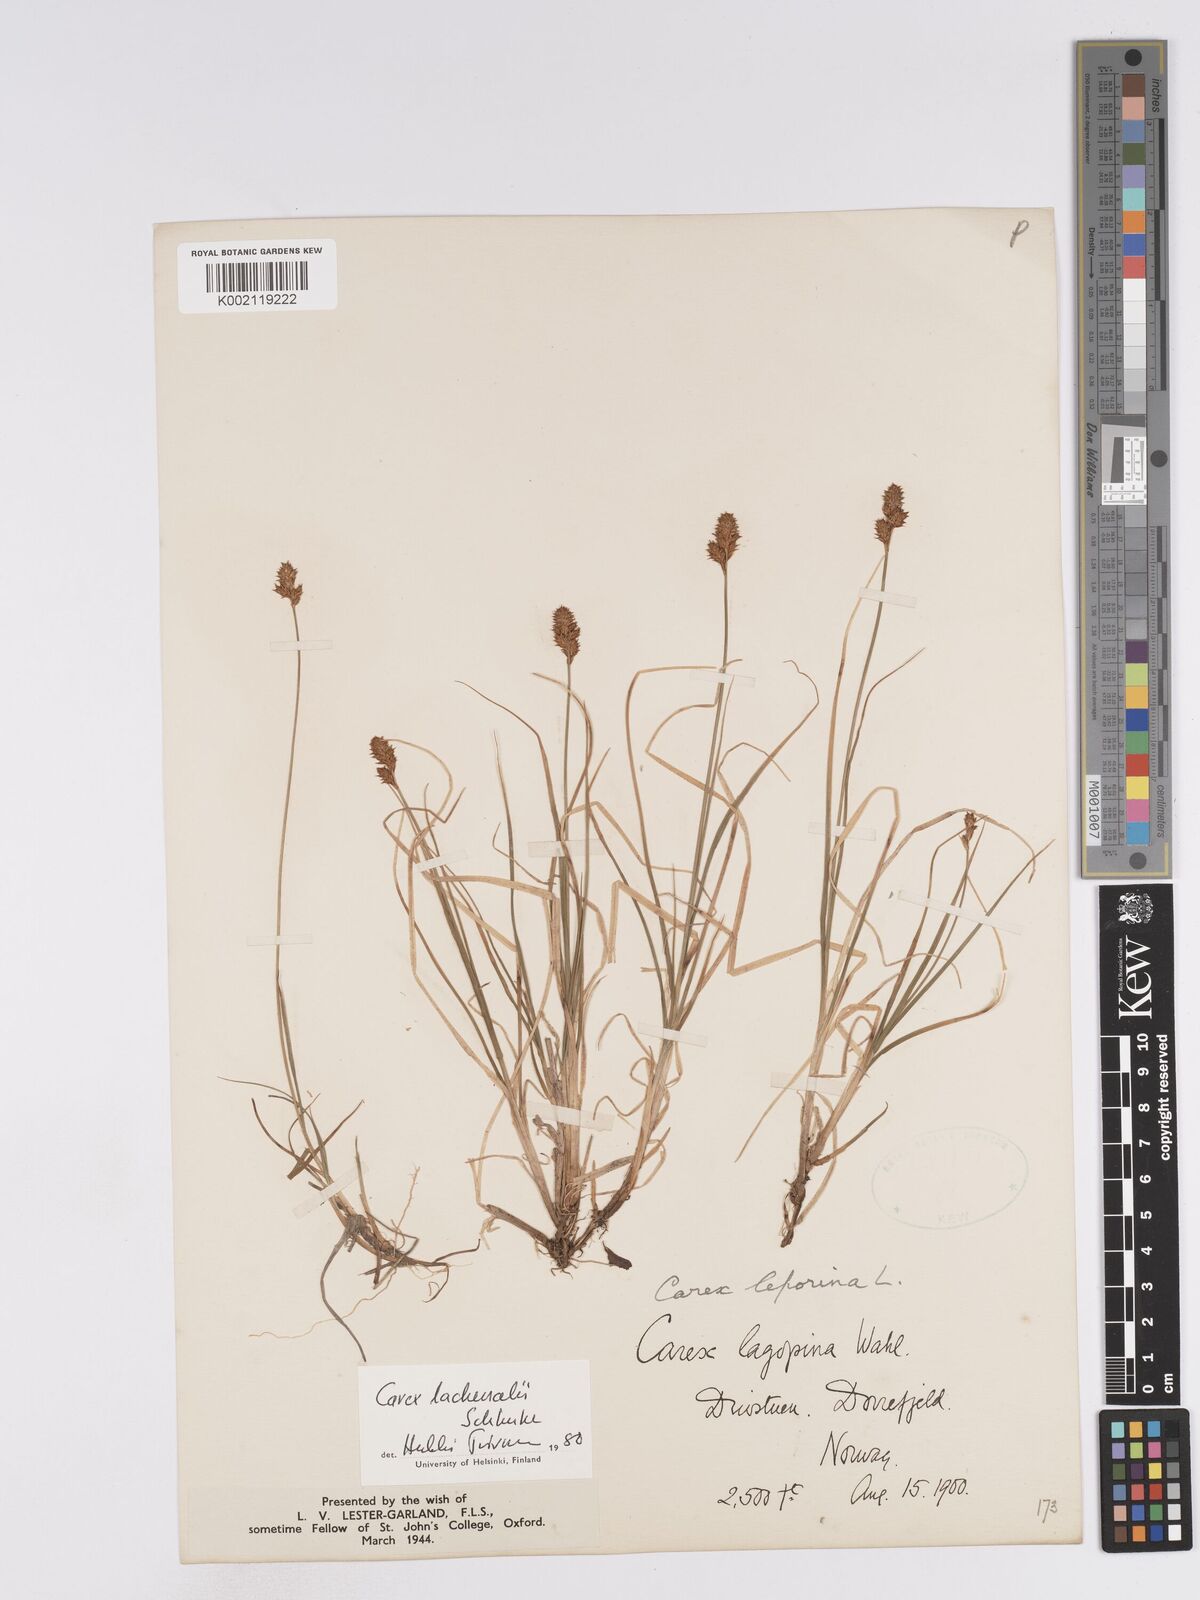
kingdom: Plantae
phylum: Tracheophyta
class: Liliopsida
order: Poales
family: Cyperaceae
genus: Carex
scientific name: Carex lachenalii
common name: Hare's-foot sedge
